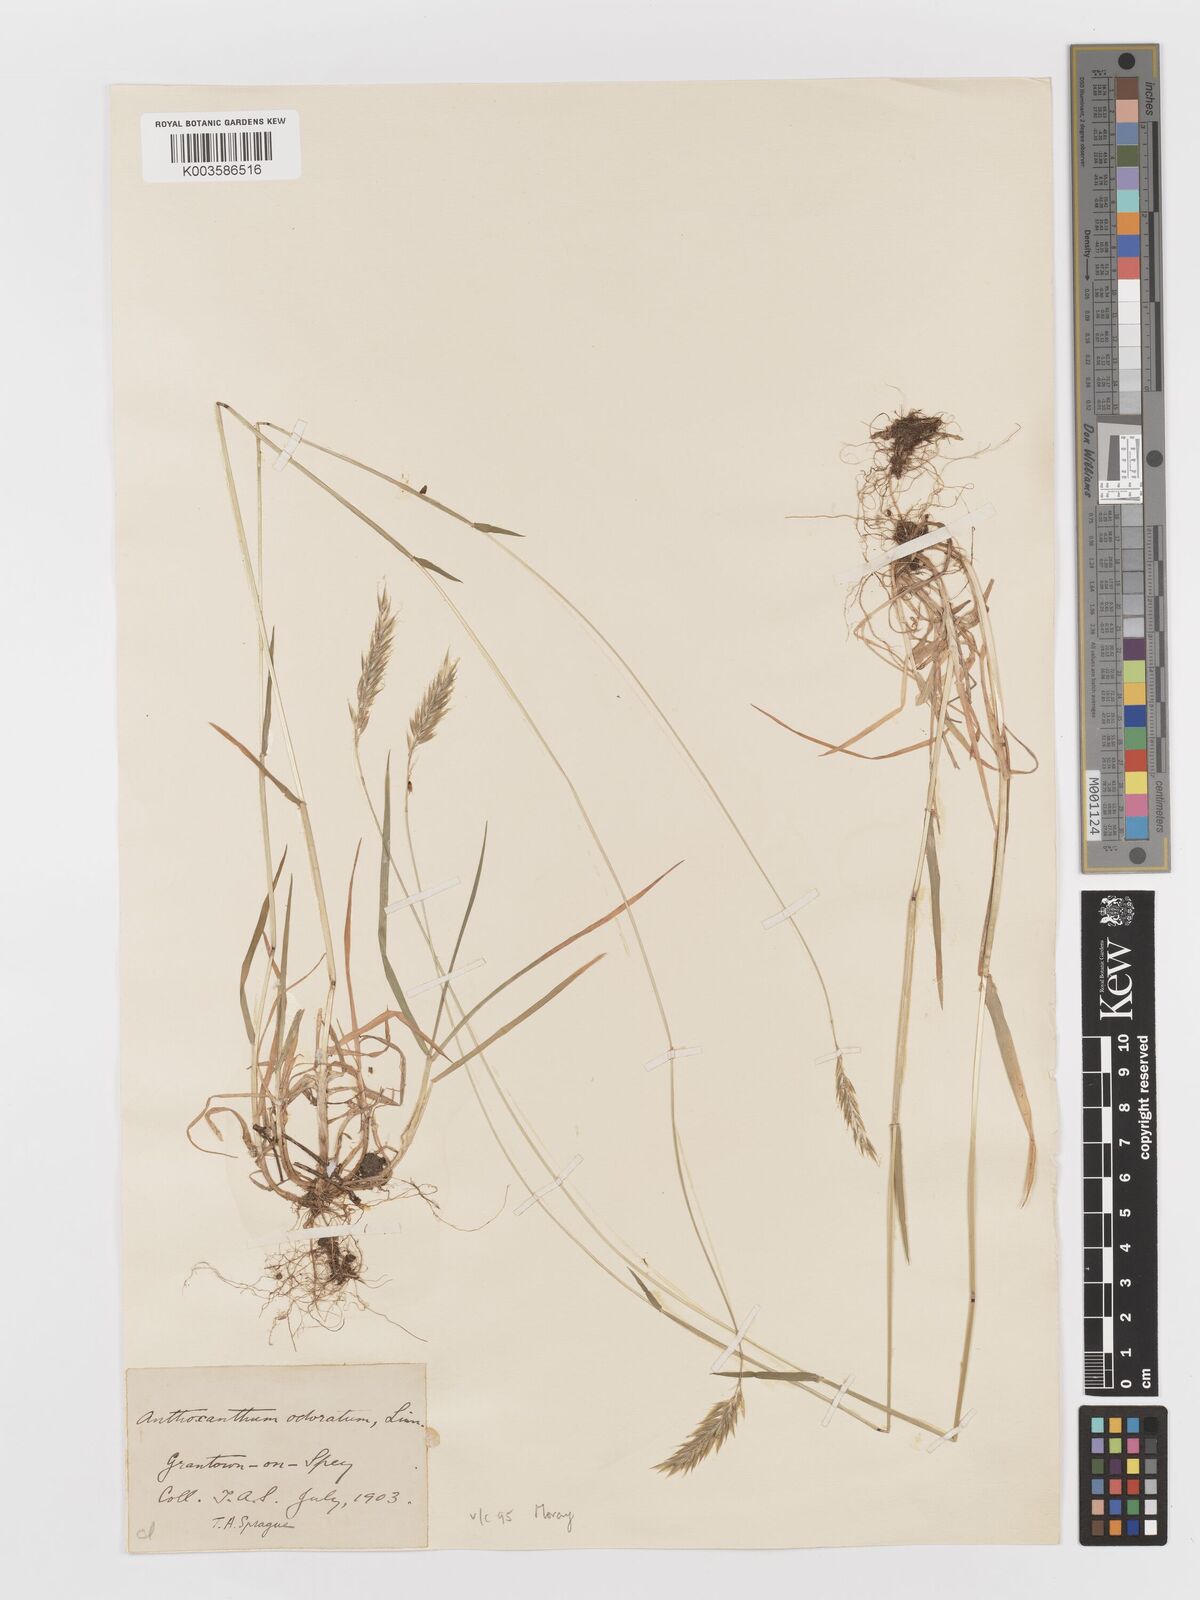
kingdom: Plantae
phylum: Tracheophyta
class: Liliopsida
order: Poales
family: Poaceae
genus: Anthoxanthum
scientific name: Anthoxanthum odoratum
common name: Sweet vernalgrass
